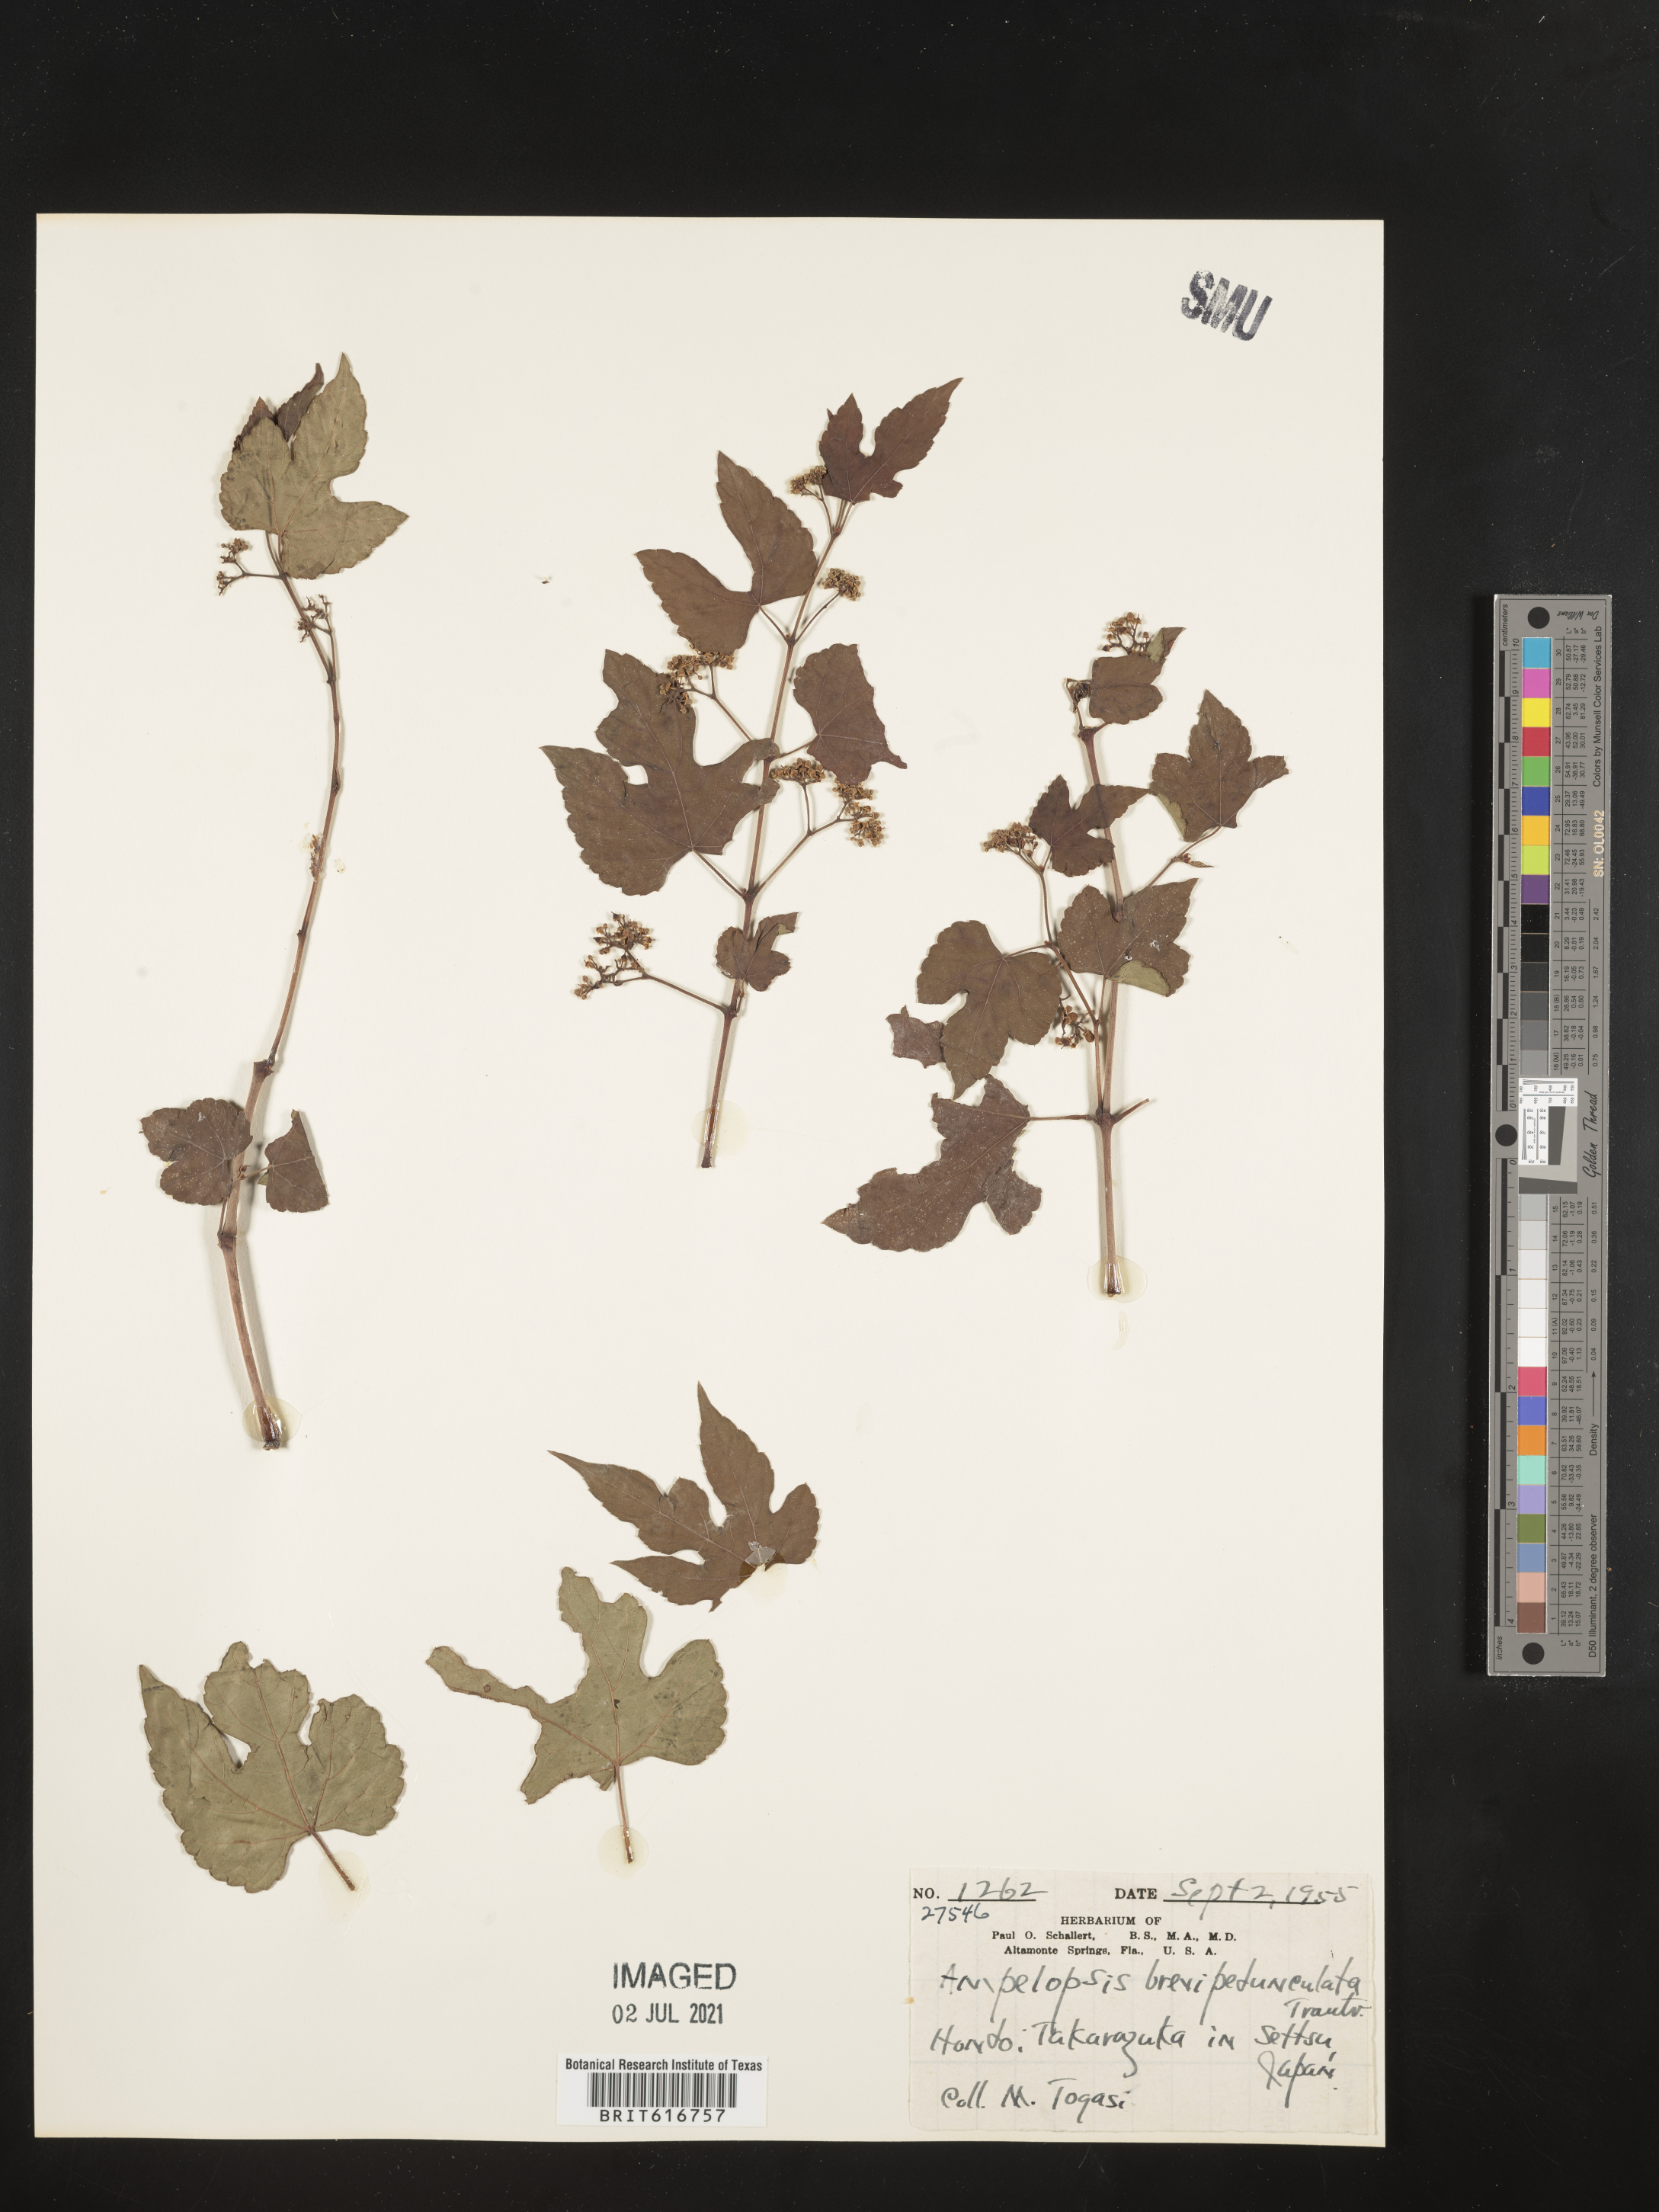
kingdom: Plantae
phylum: Tracheophyta
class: Magnoliopsida
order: Vitales
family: Vitaceae
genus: Ampelopsis
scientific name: Ampelopsis glandulosa
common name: Amur peppervine
